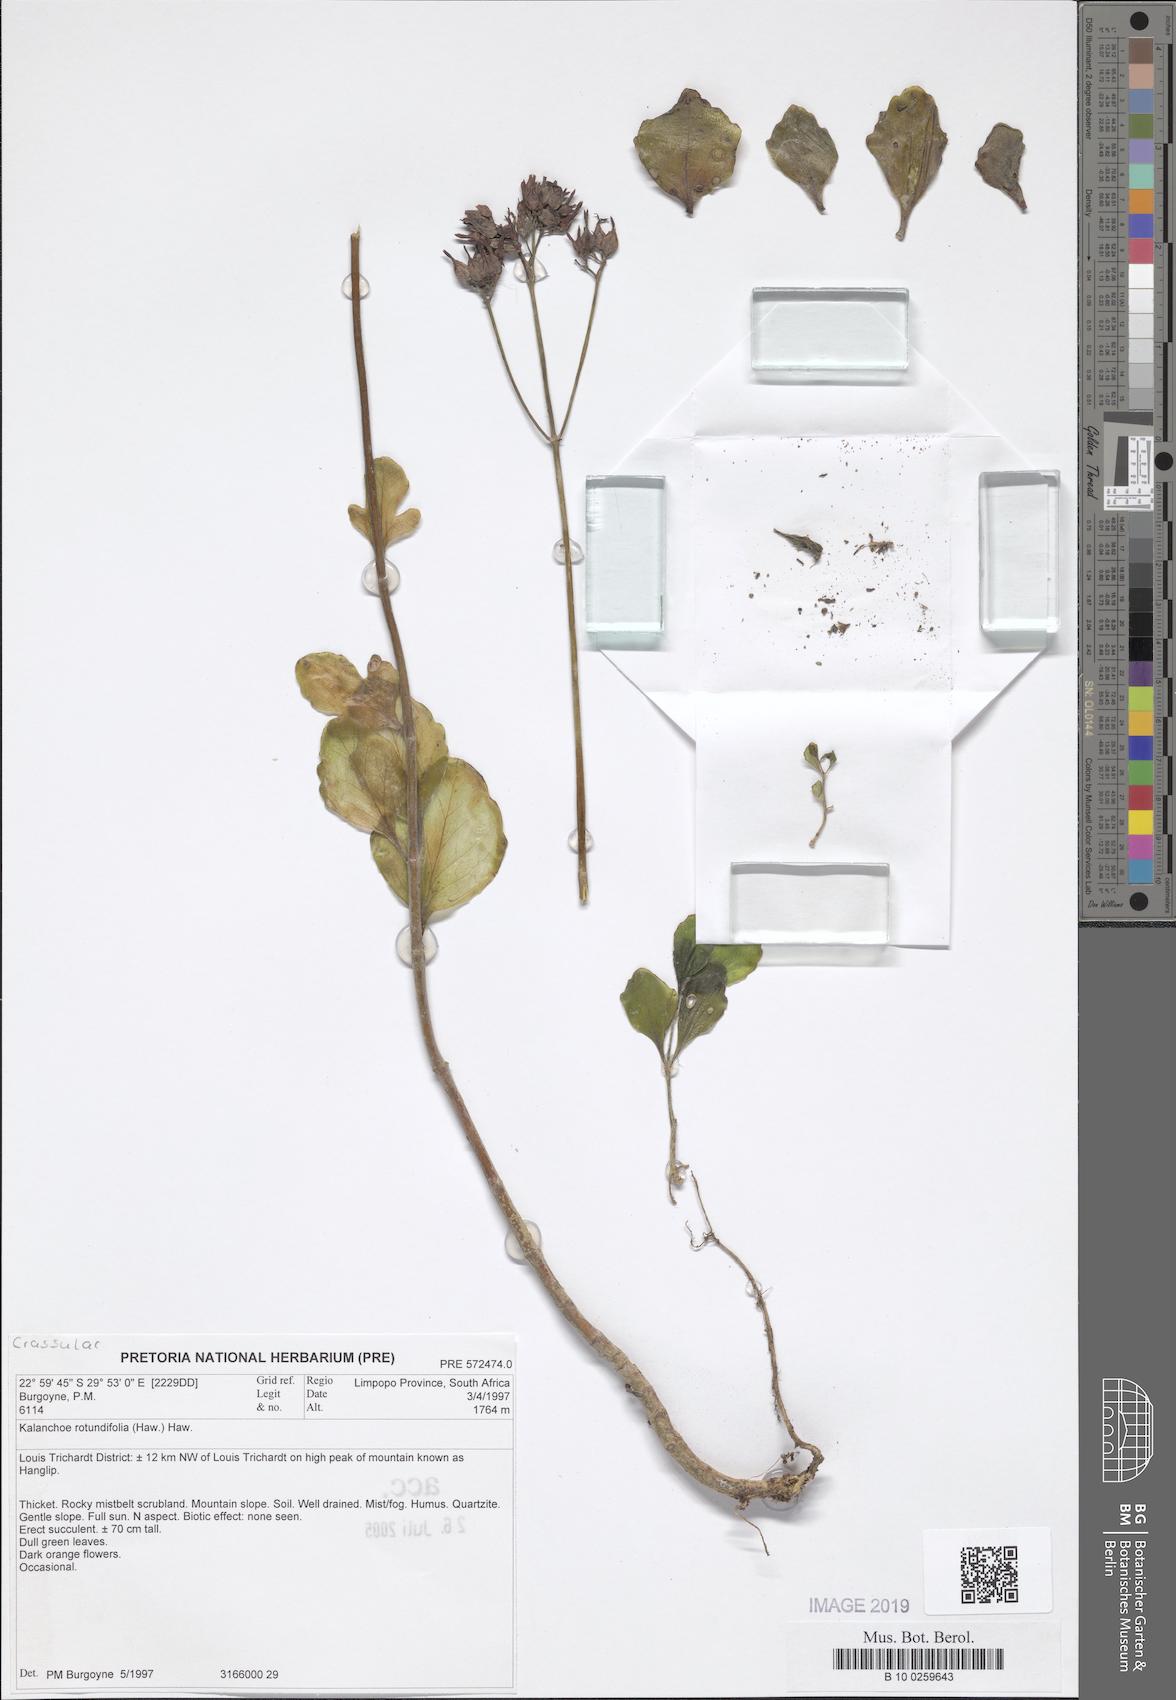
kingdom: Plantae
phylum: Tracheophyta
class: Magnoliopsida
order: Saxifragales
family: Crassulaceae
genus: Kalanchoe
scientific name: Kalanchoe rotundifolia
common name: Common kalanchoe
